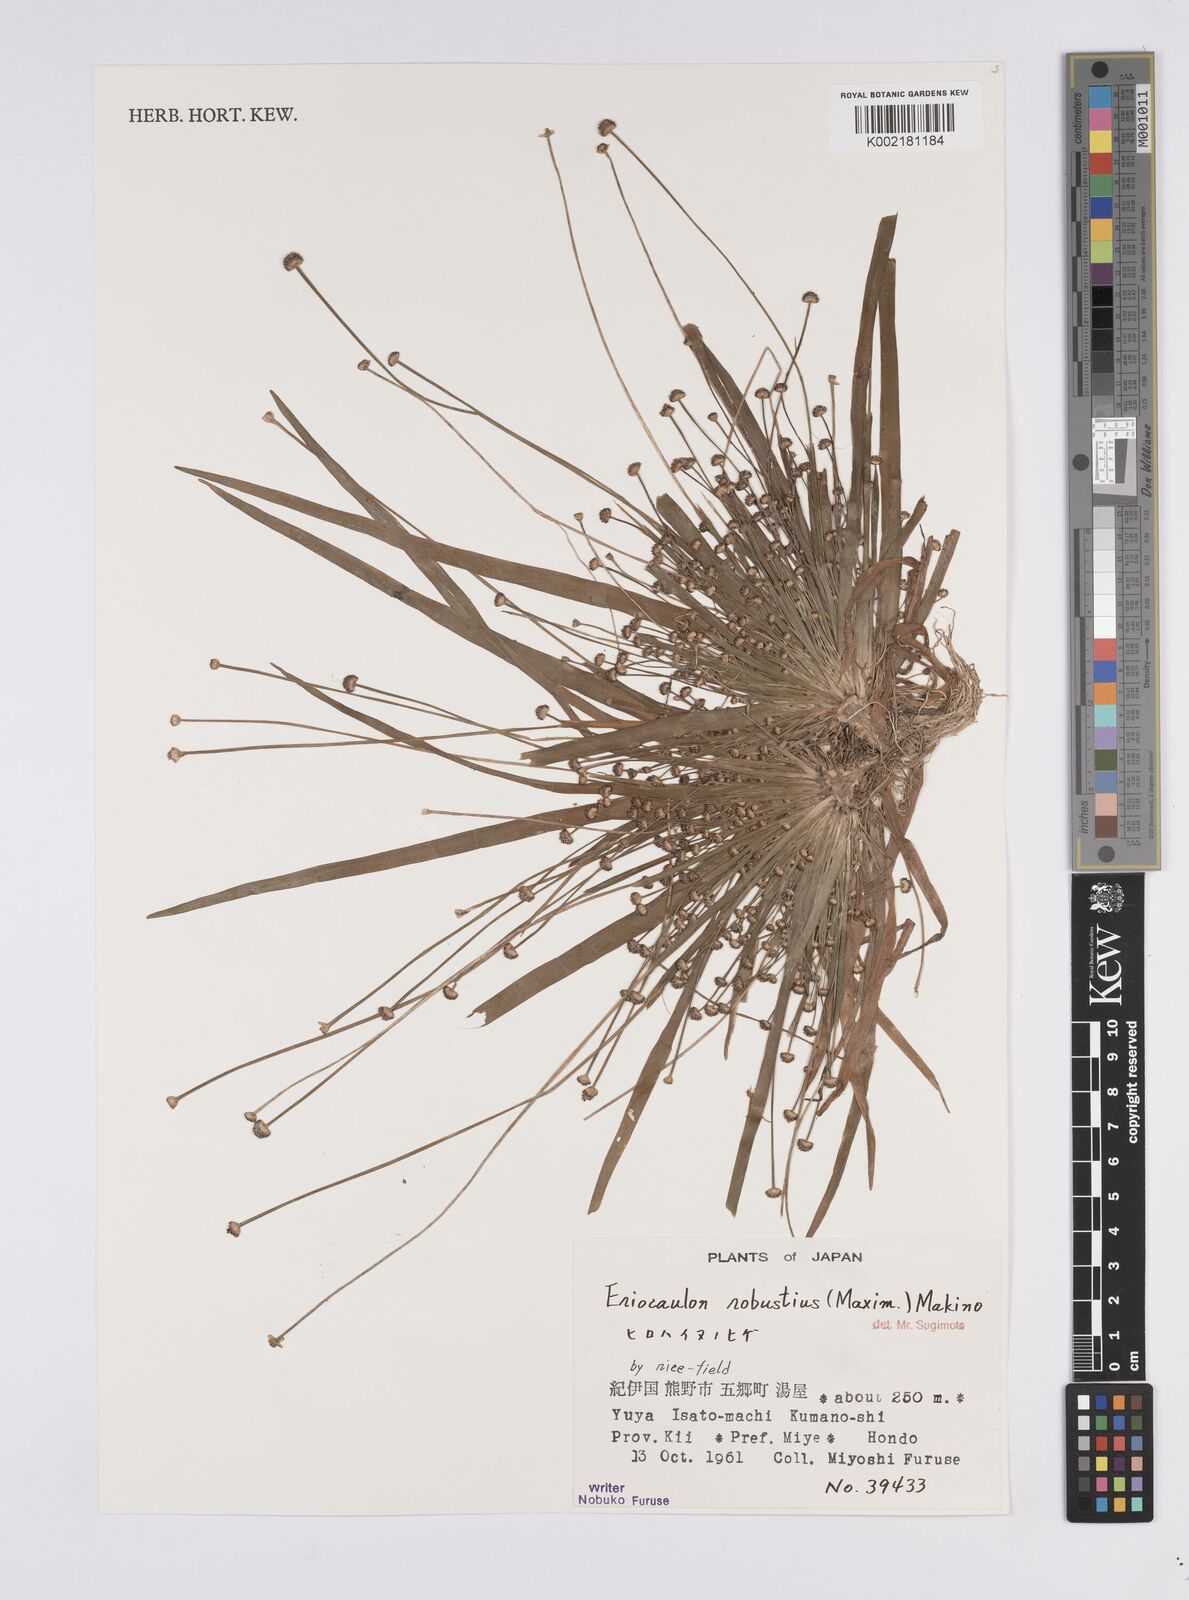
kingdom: Plantae
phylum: Tracheophyta
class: Liliopsida
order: Poales
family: Eriocaulaceae
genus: Eriocaulon
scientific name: Eriocaulon alpestre
